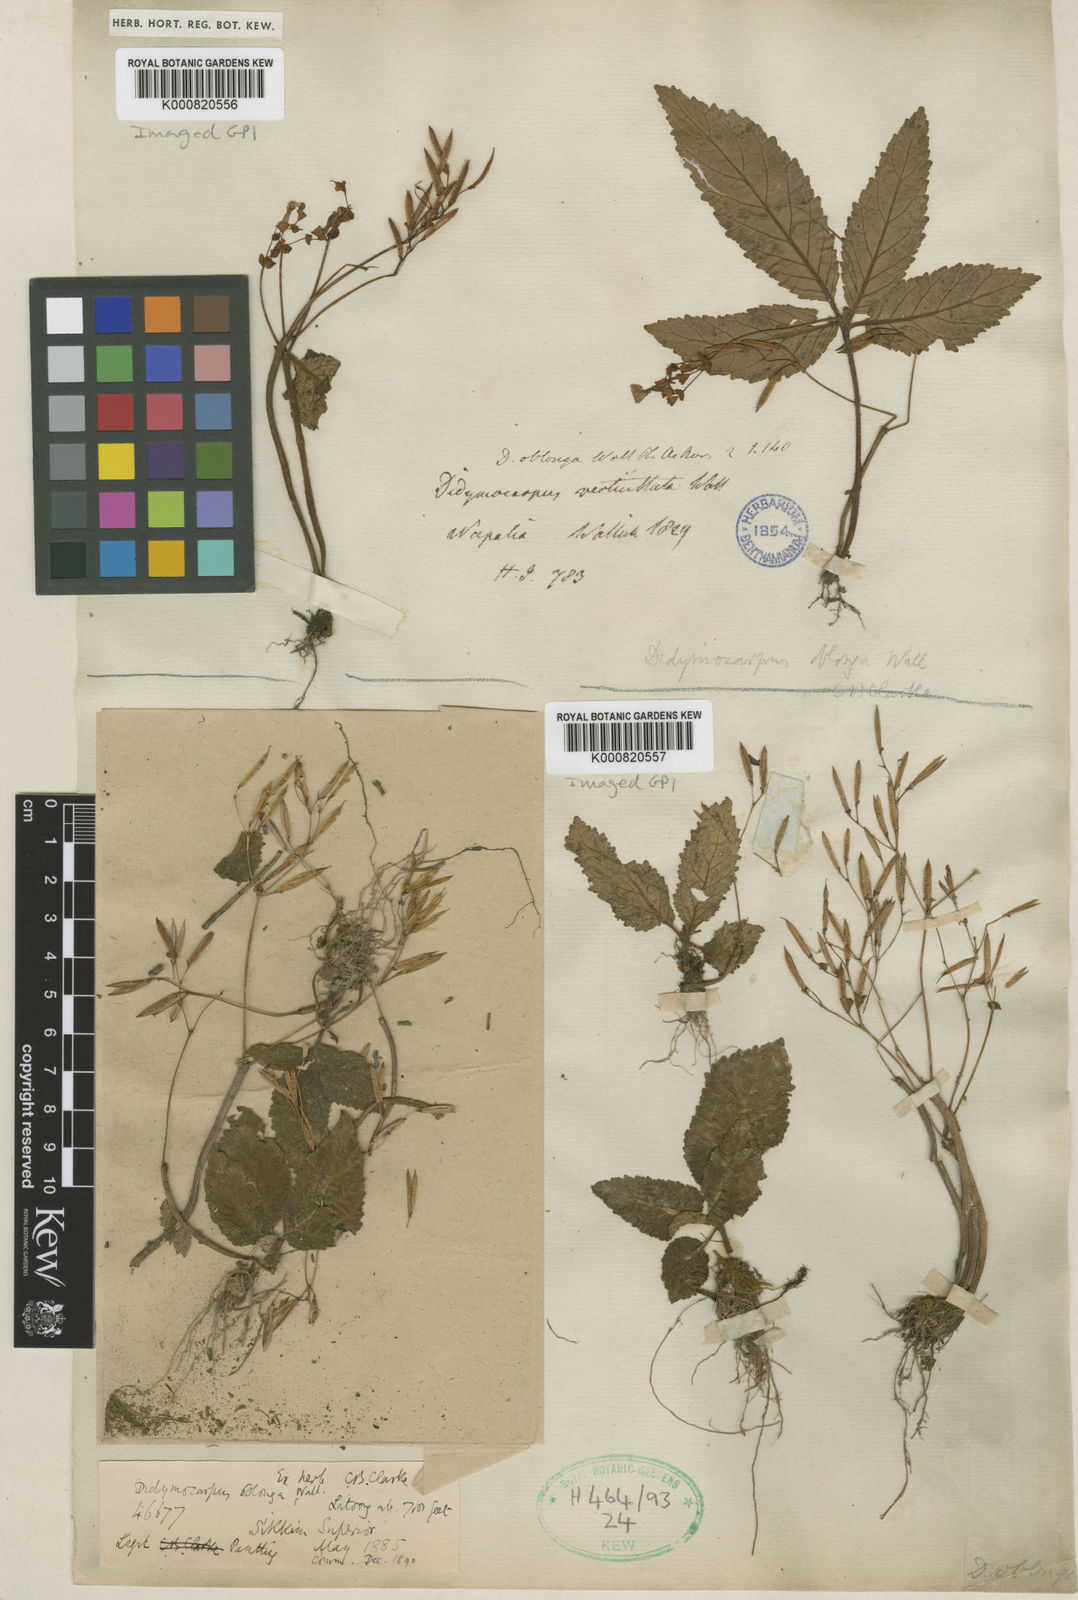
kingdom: Plantae
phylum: Tracheophyta
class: Magnoliopsida
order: Lamiales
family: Gesneriaceae
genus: Didymocarpus
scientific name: Didymocarpus
